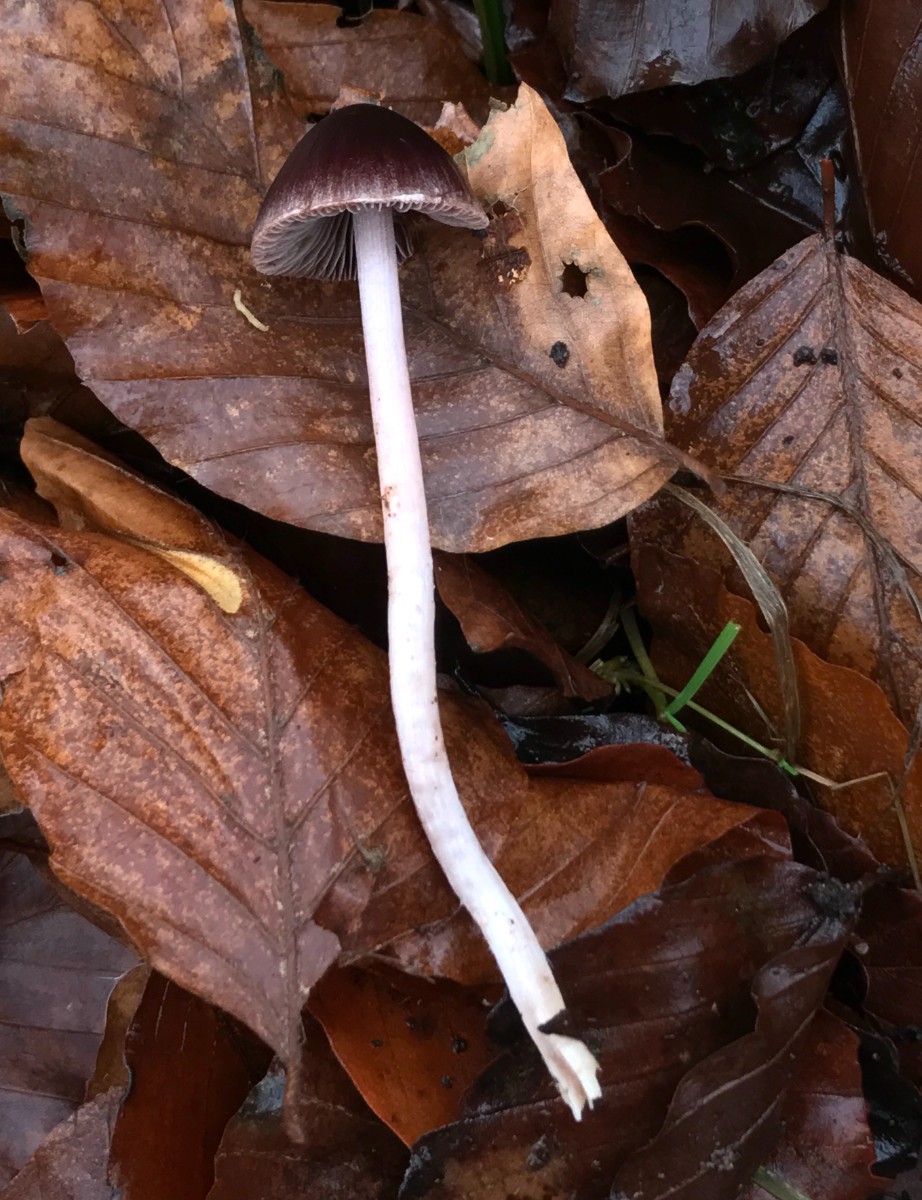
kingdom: Fungi
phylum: Basidiomycota
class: Agaricomycetes
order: Agaricales
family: Psathyrellaceae
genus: Psathyrella
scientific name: Psathyrella bipellis
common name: vinrød mørkhat
